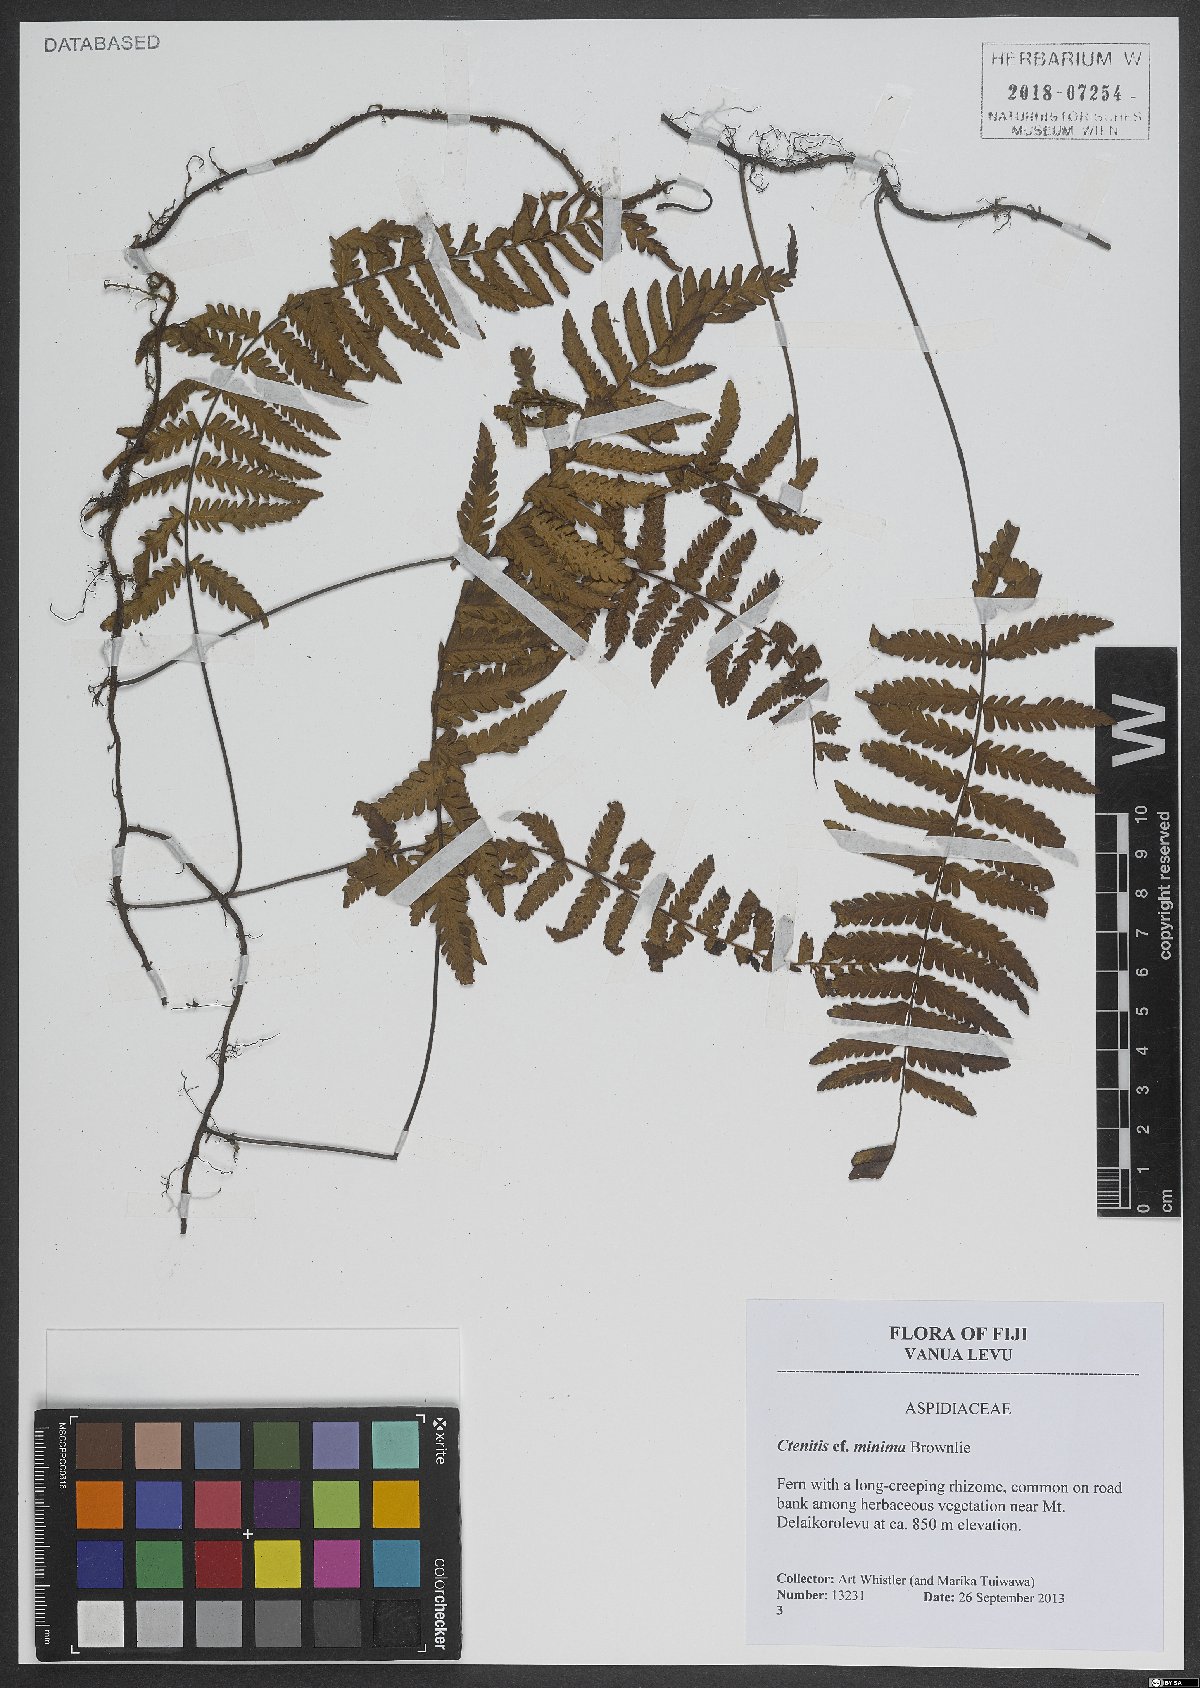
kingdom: Plantae
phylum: Tracheophyta
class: Polypodiopsida
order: Polypodiales
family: Tectariaceae
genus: Tectaria
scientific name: Tectaria dissecta
